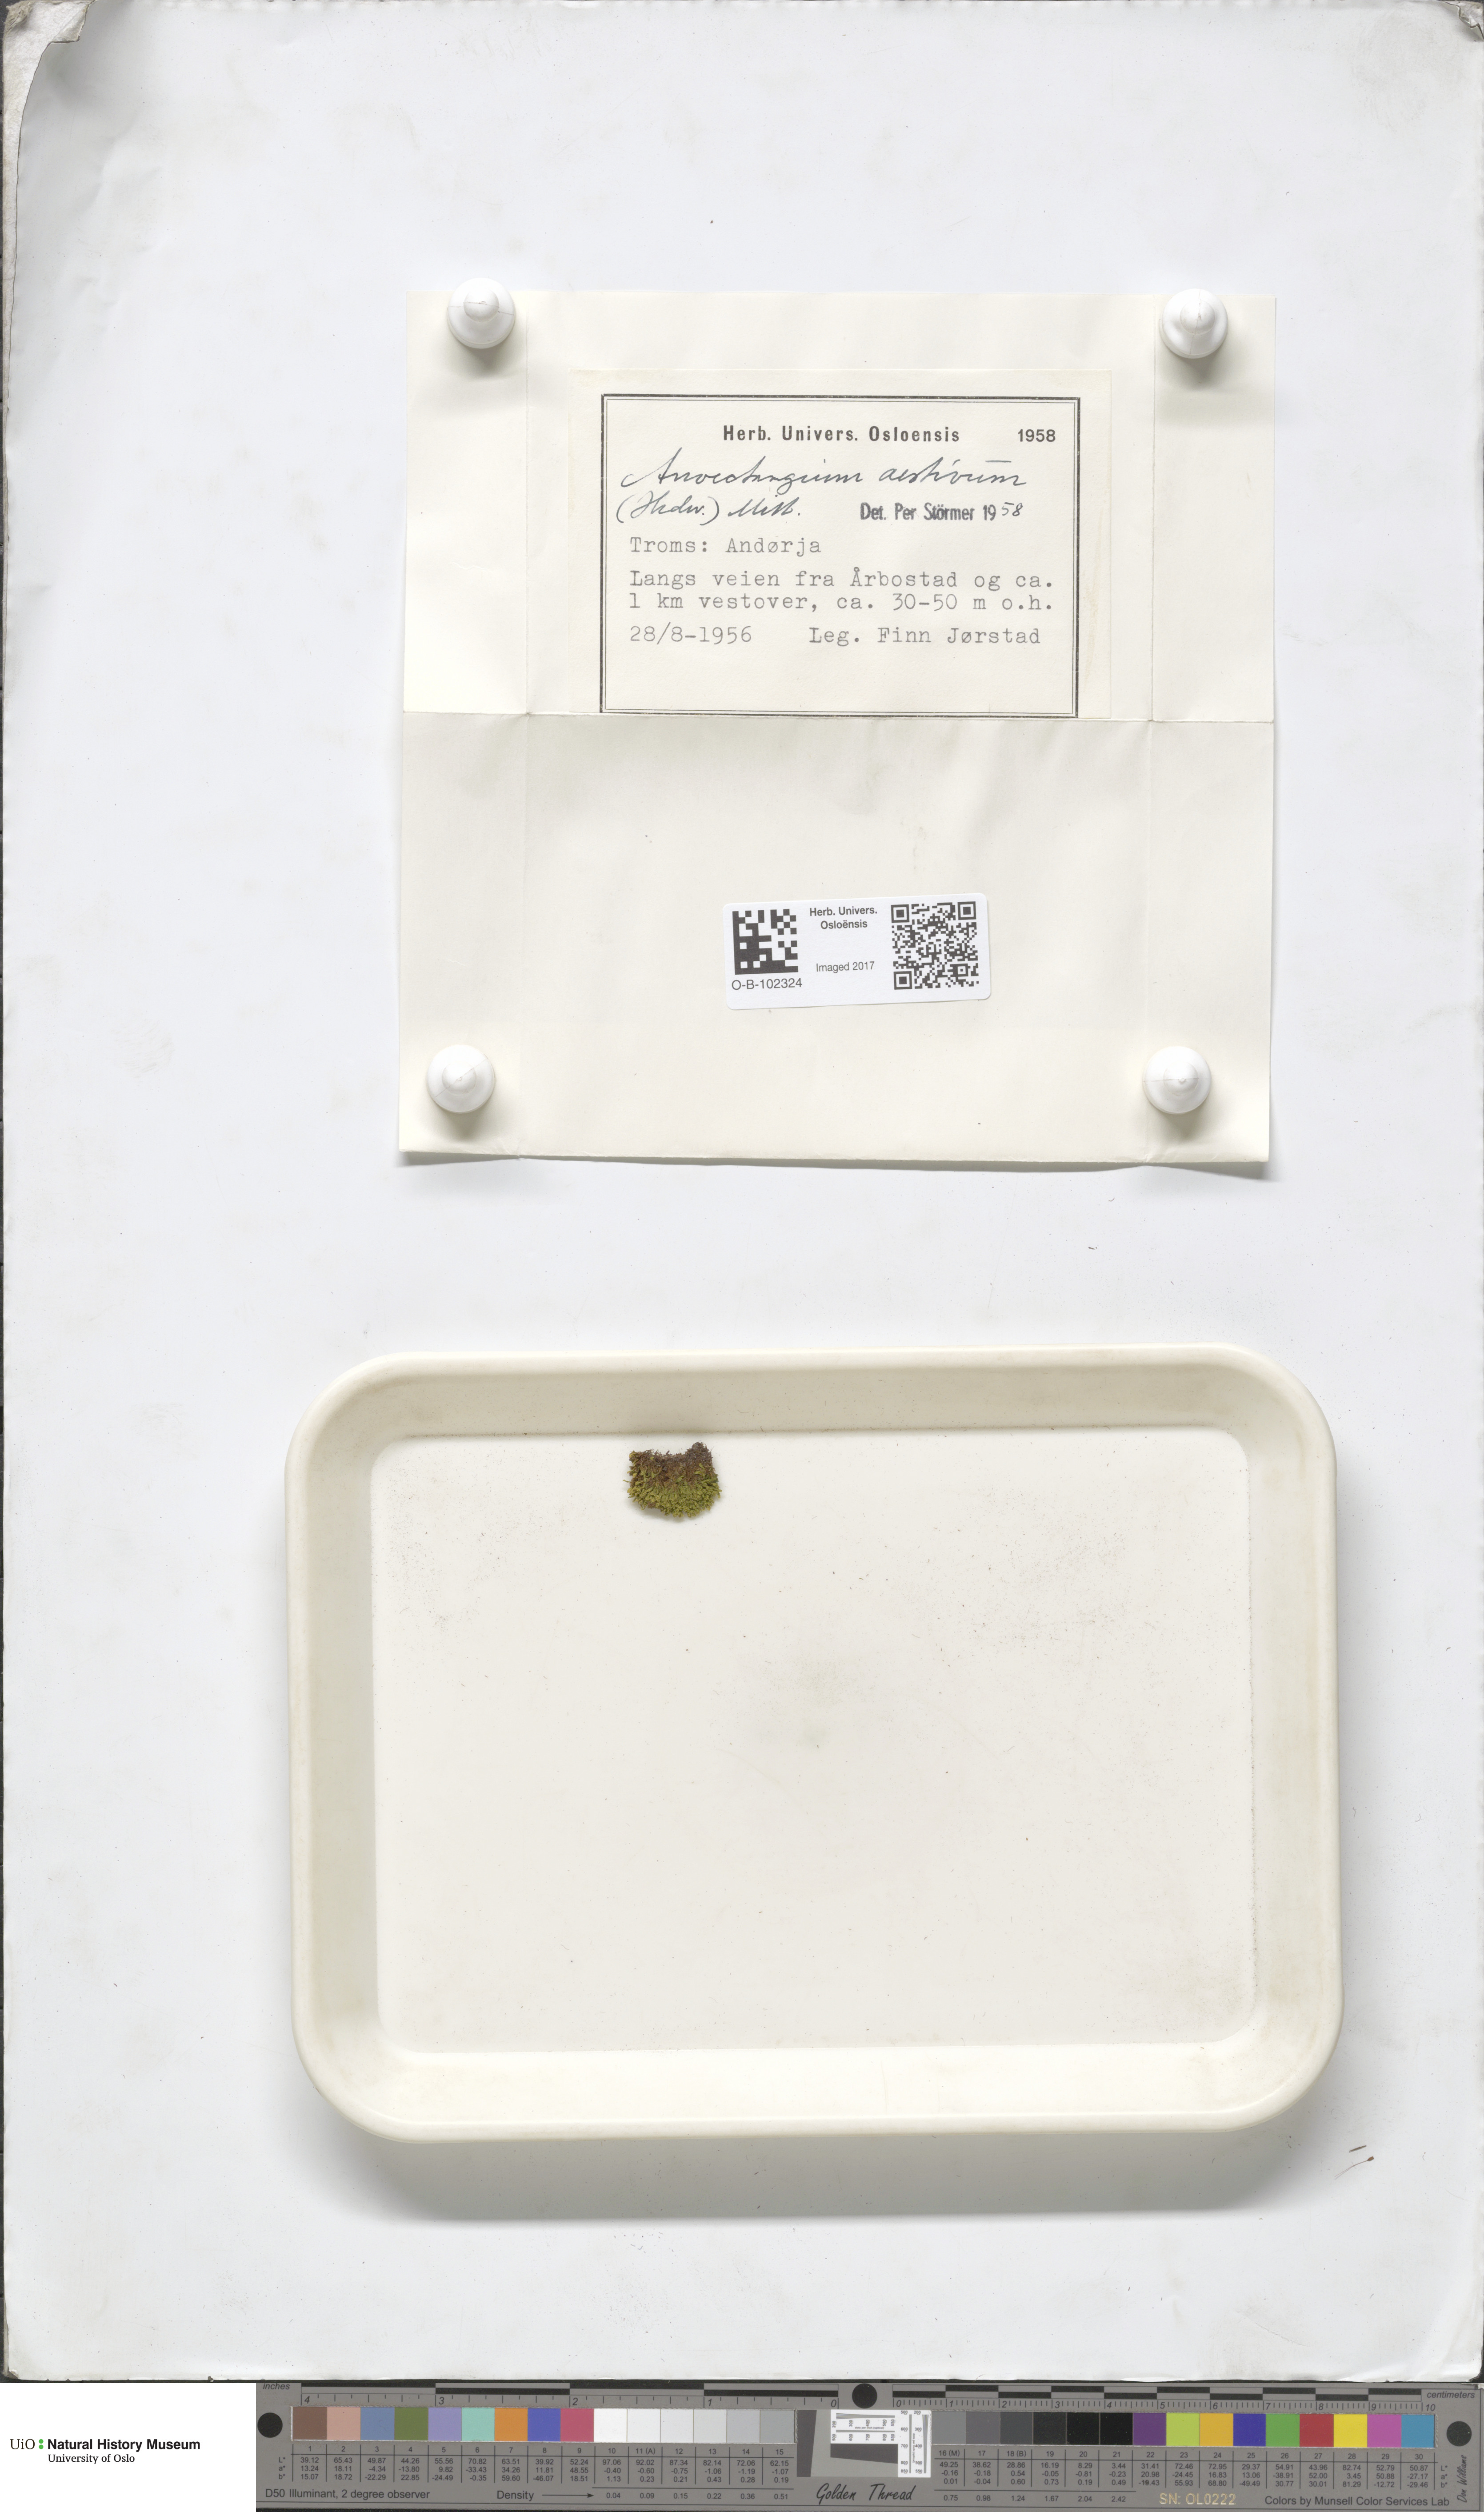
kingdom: Plantae
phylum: Bryophyta
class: Bryopsida
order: Pottiales
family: Pottiaceae
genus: Anoectangium
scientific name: Anoectangium aestivum
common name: Summer-moss
